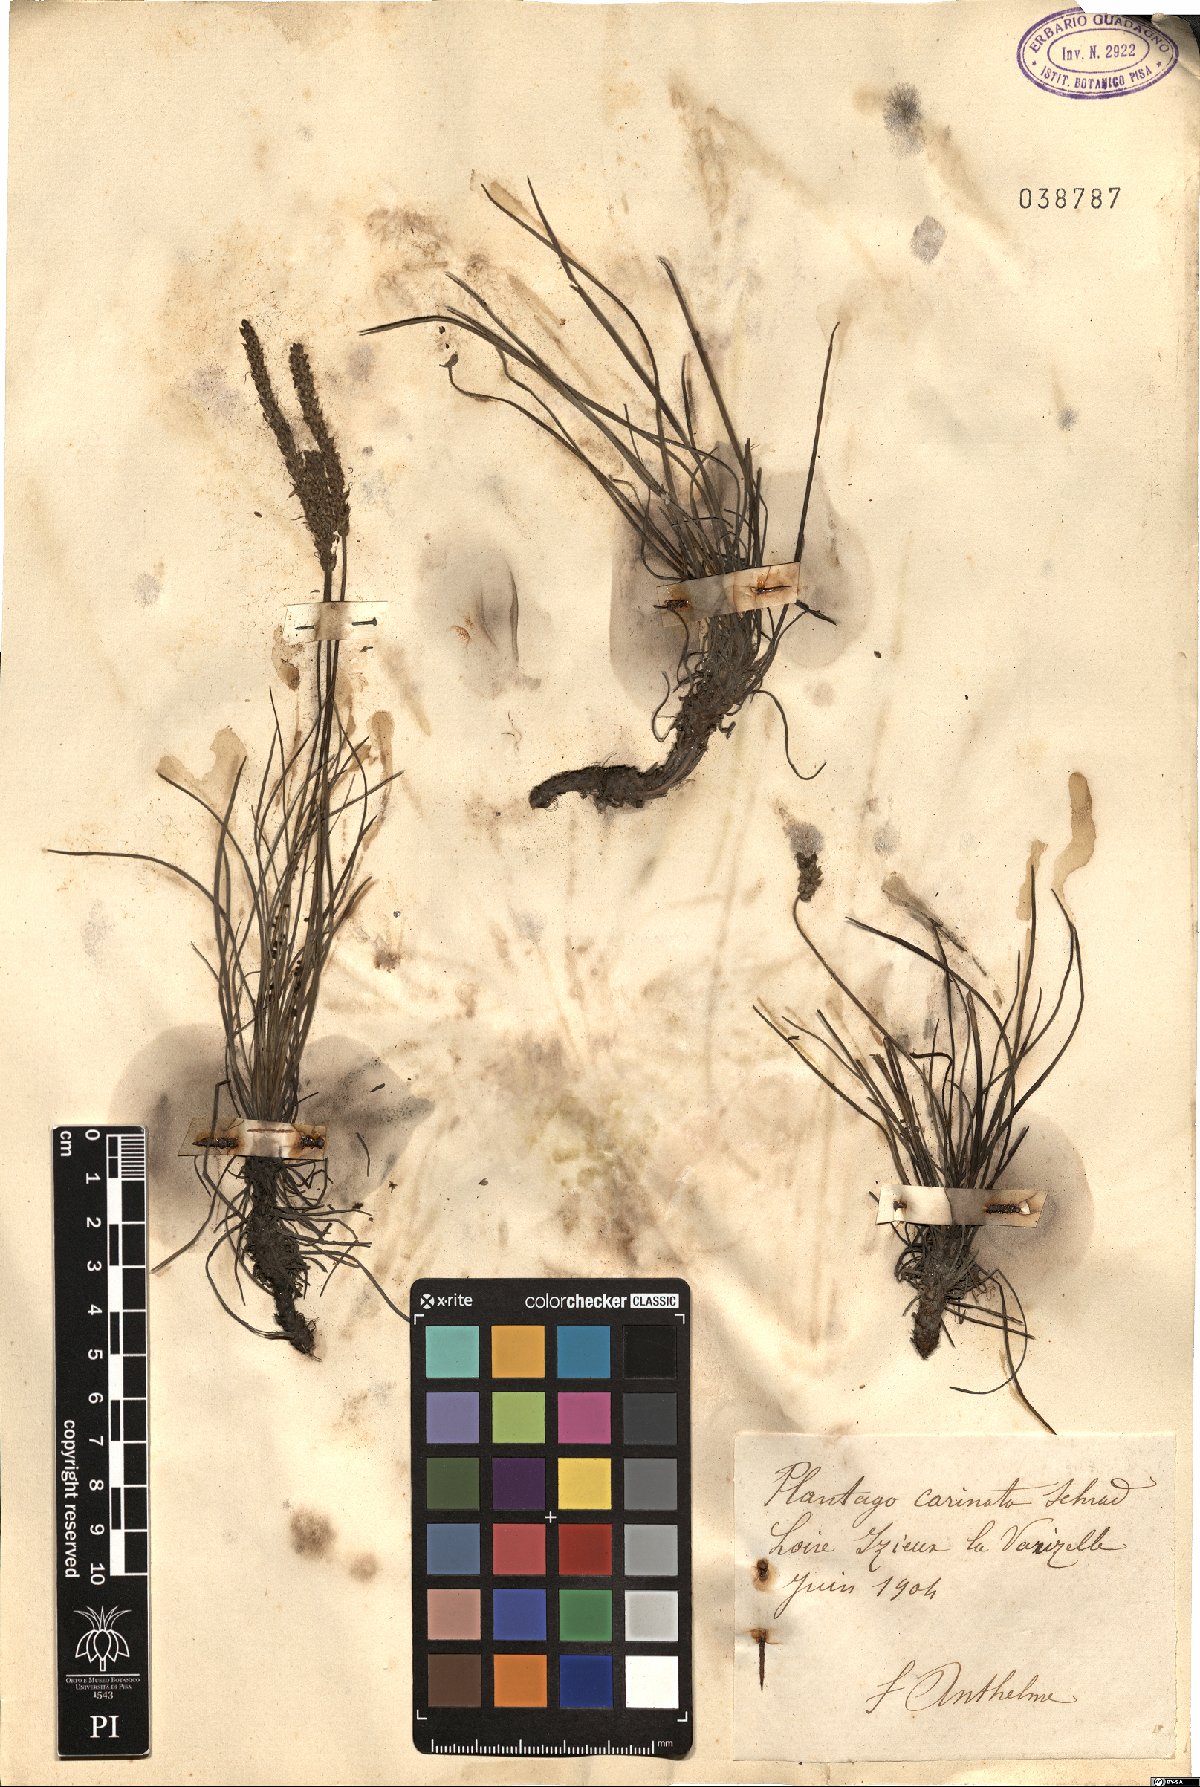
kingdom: Plantae
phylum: Tracheophyta
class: Magnoliopsida
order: Lamiales
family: Plantaginaceae
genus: Plantago
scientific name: Plantago subulata
